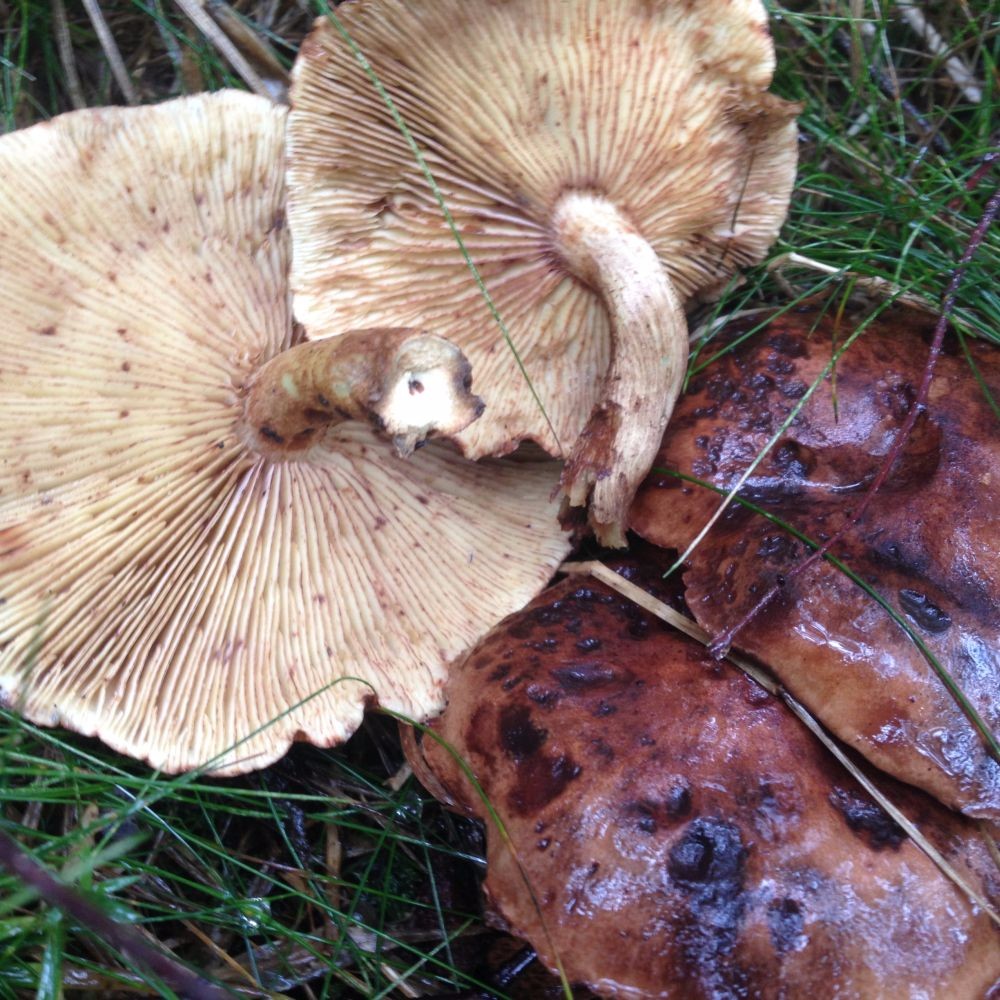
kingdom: Fungi
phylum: Basidiomycota
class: Agaricomycetes
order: Agaricales
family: Tricholomataceae
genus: Tricholoma
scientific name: Tricholoma fulvum
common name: birke-ridderhat
